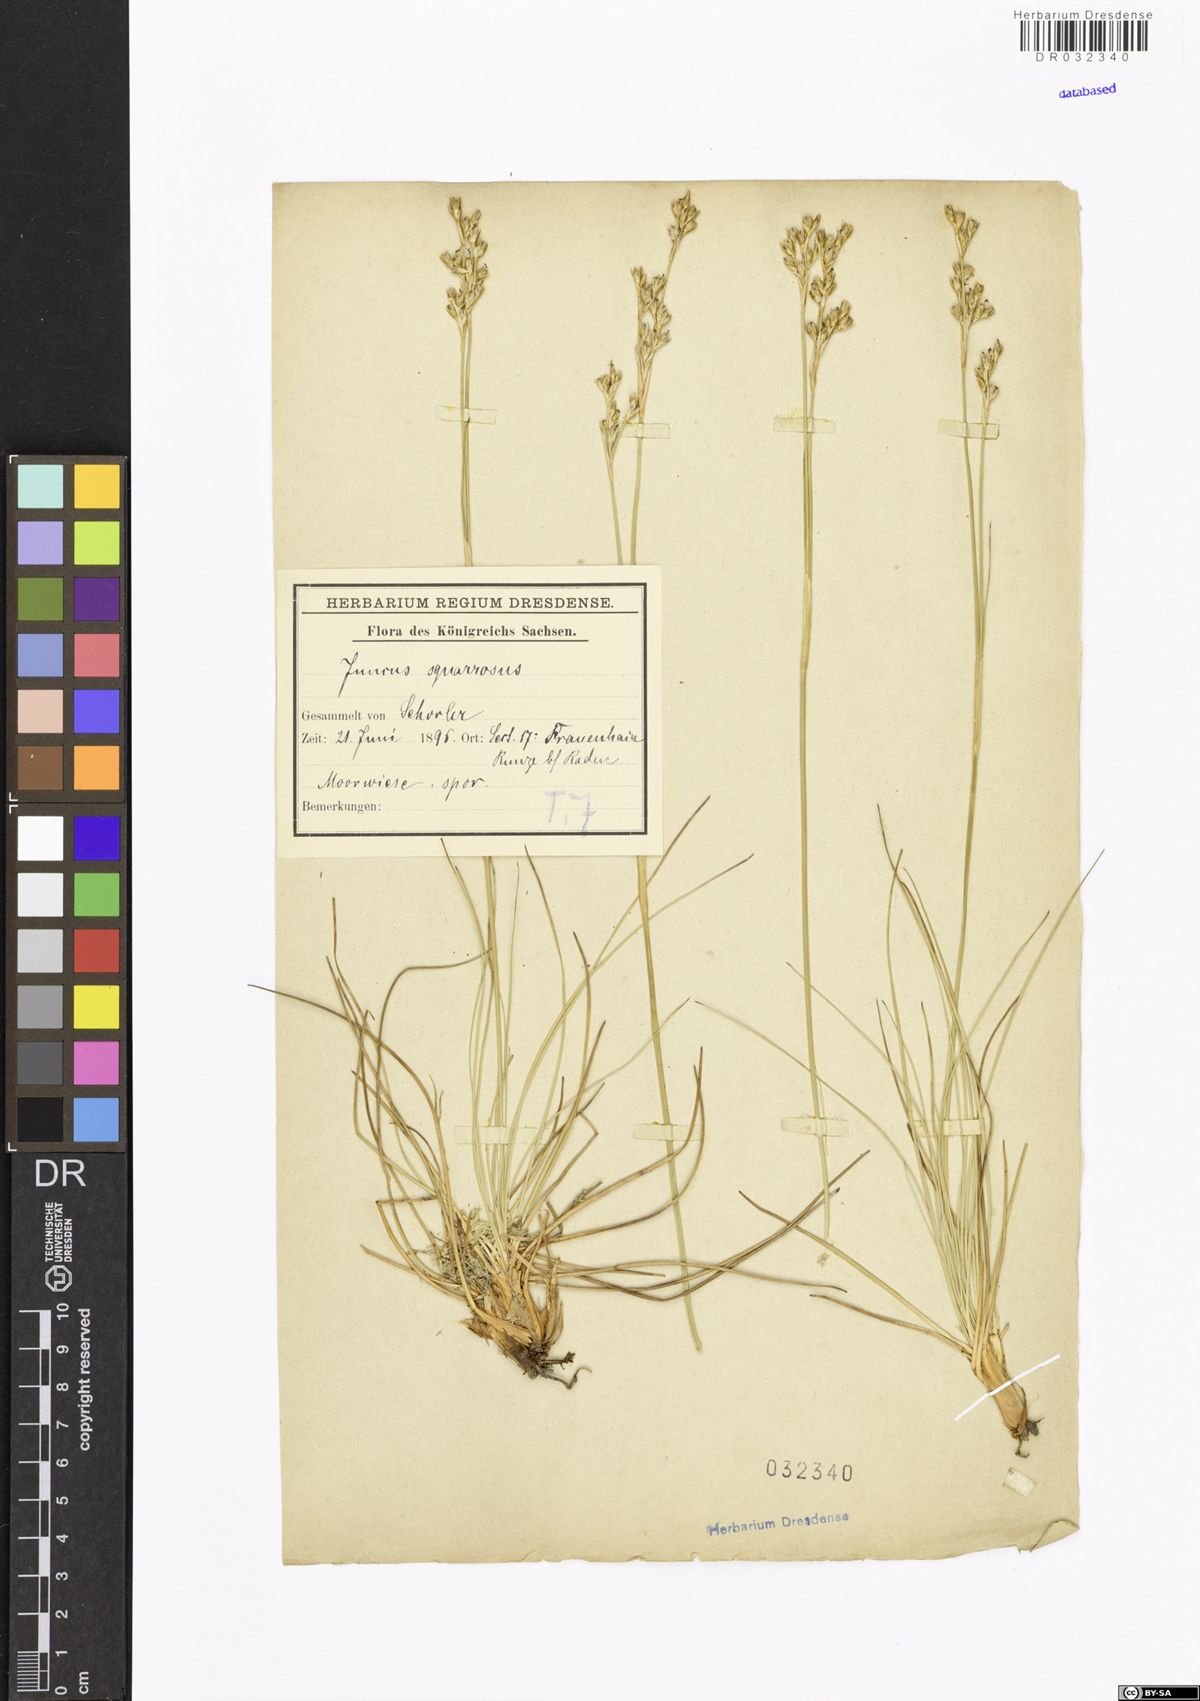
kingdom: Plantae
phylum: Tracheophyta
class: Liliopsida
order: Poales
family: Juncaceae
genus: Juncus
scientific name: Juncus squarrosus
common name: Heath rush
